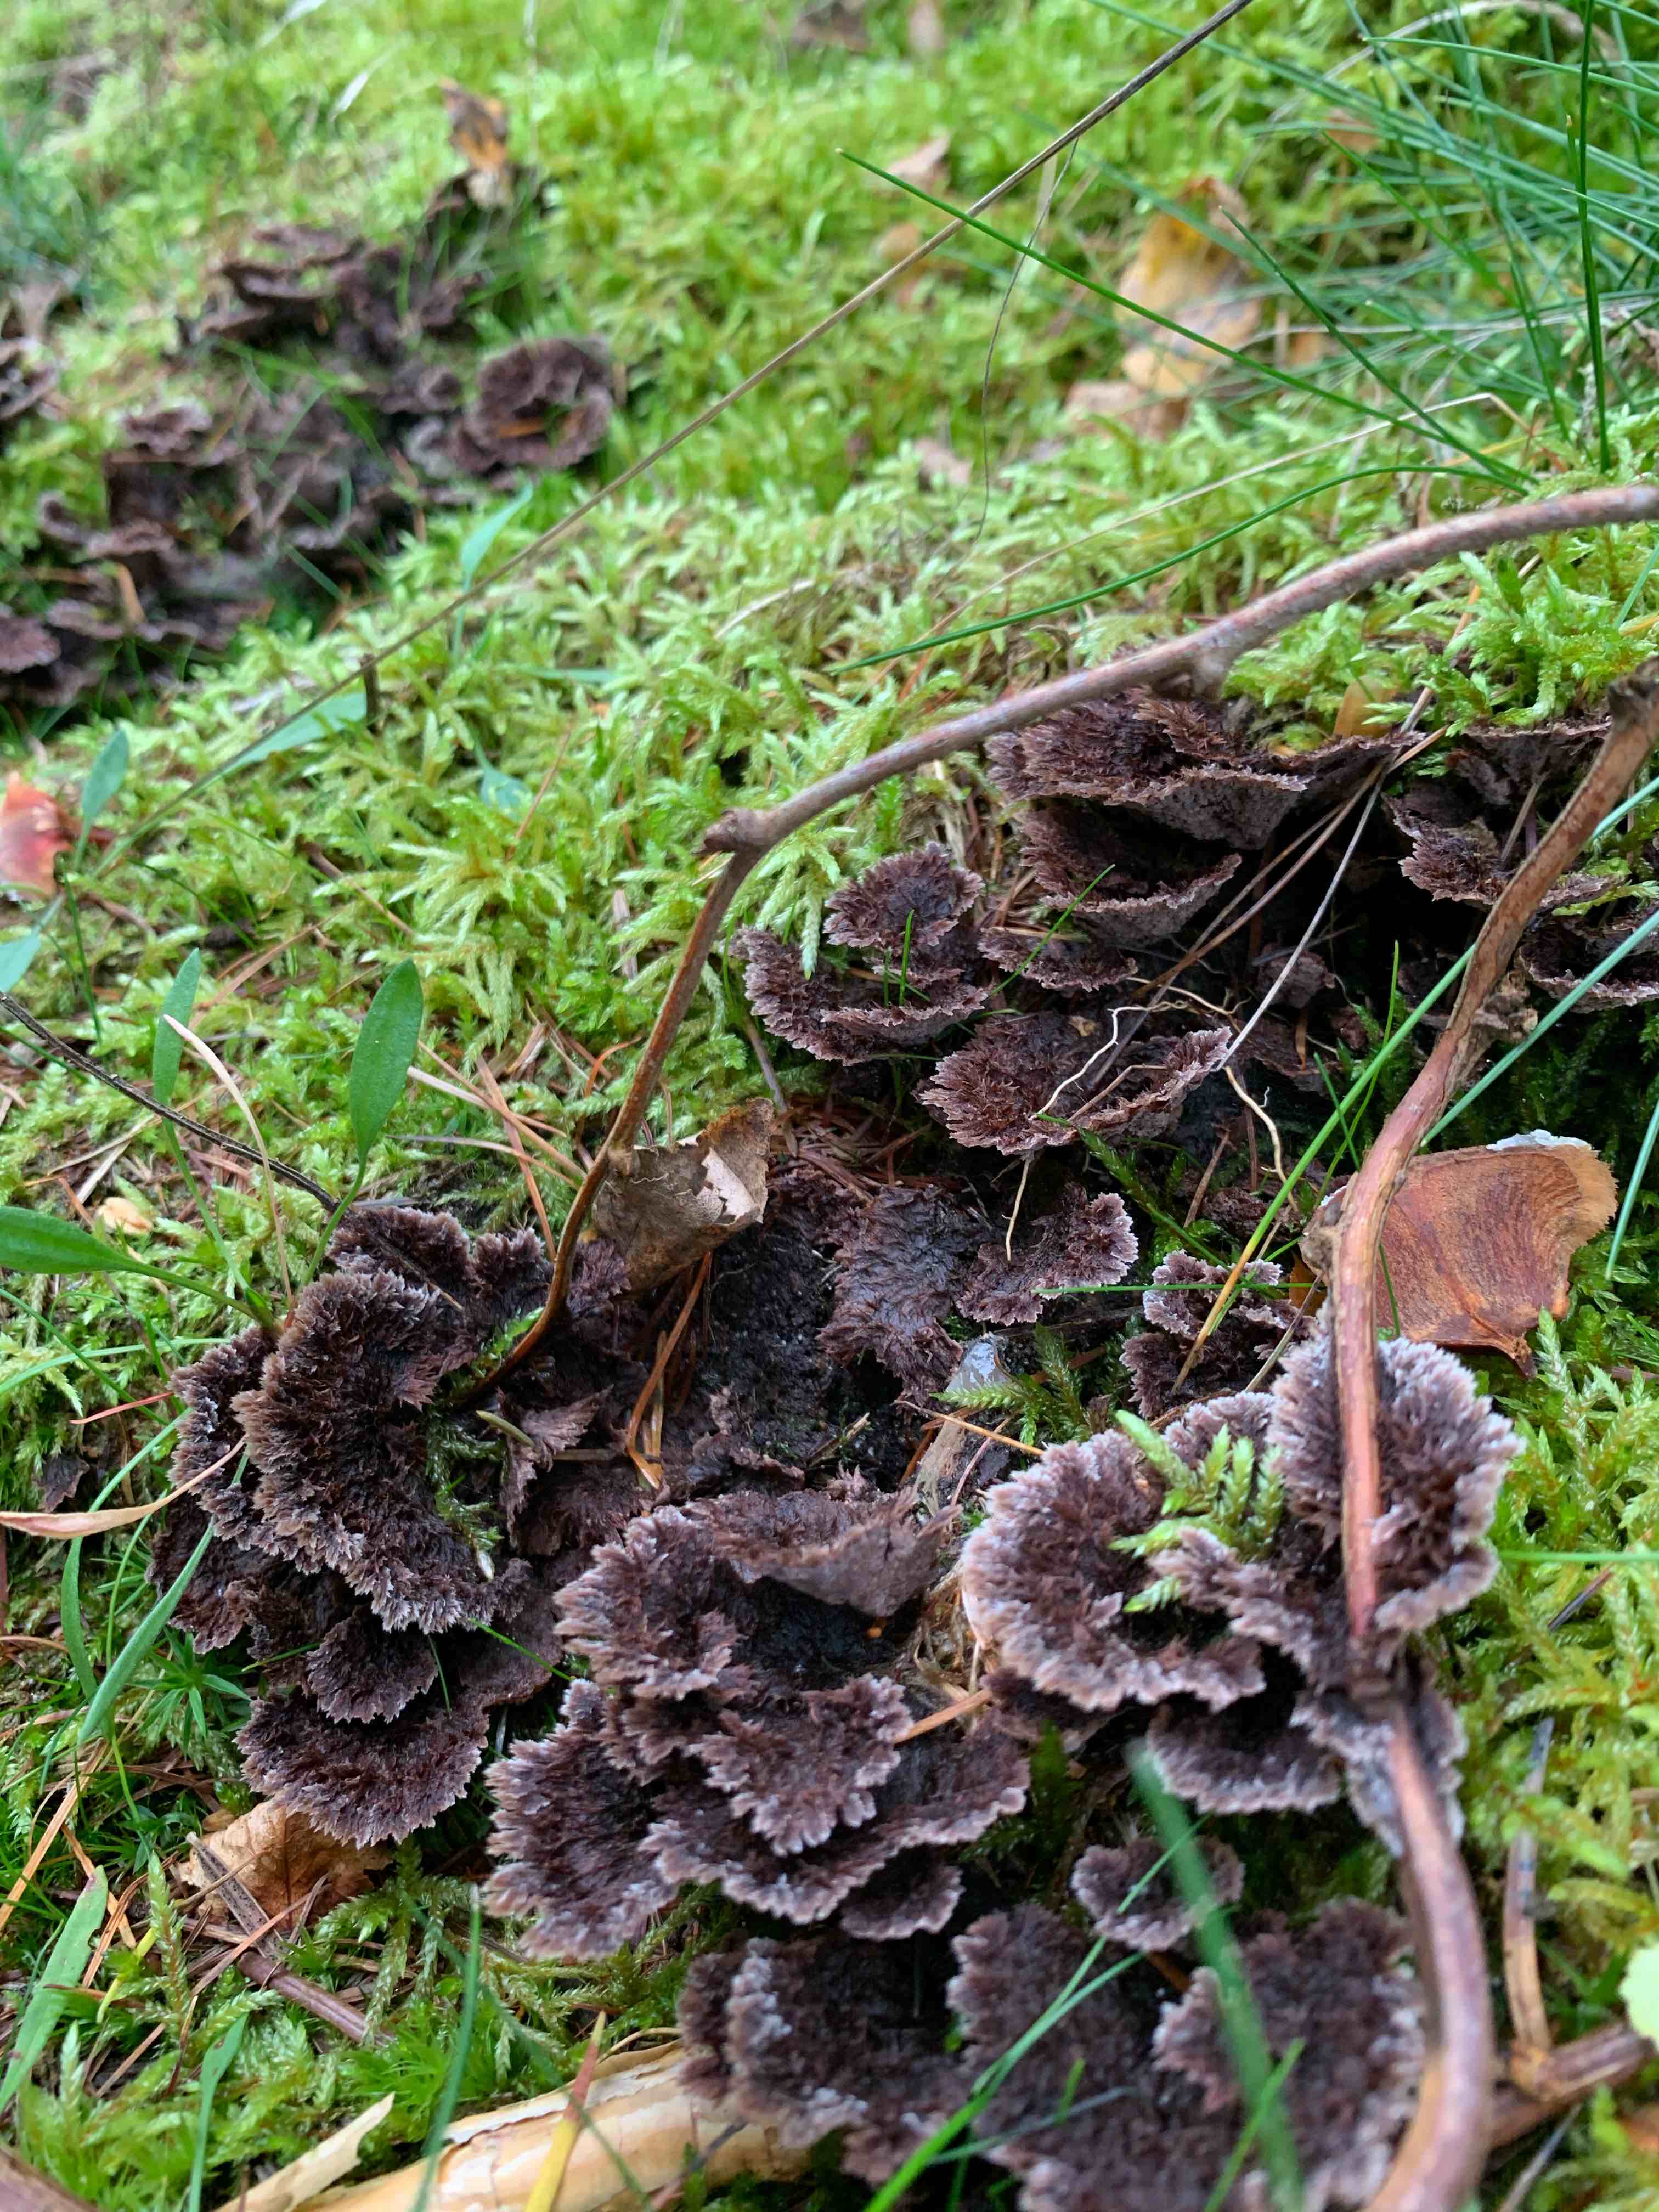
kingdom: Fungi
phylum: Basidiomycota
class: Agaricomycetes
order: Thelephorales
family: Thelephoraceae
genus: Thelephora
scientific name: Thelephora terrestris
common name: fliget frynsesvamp
